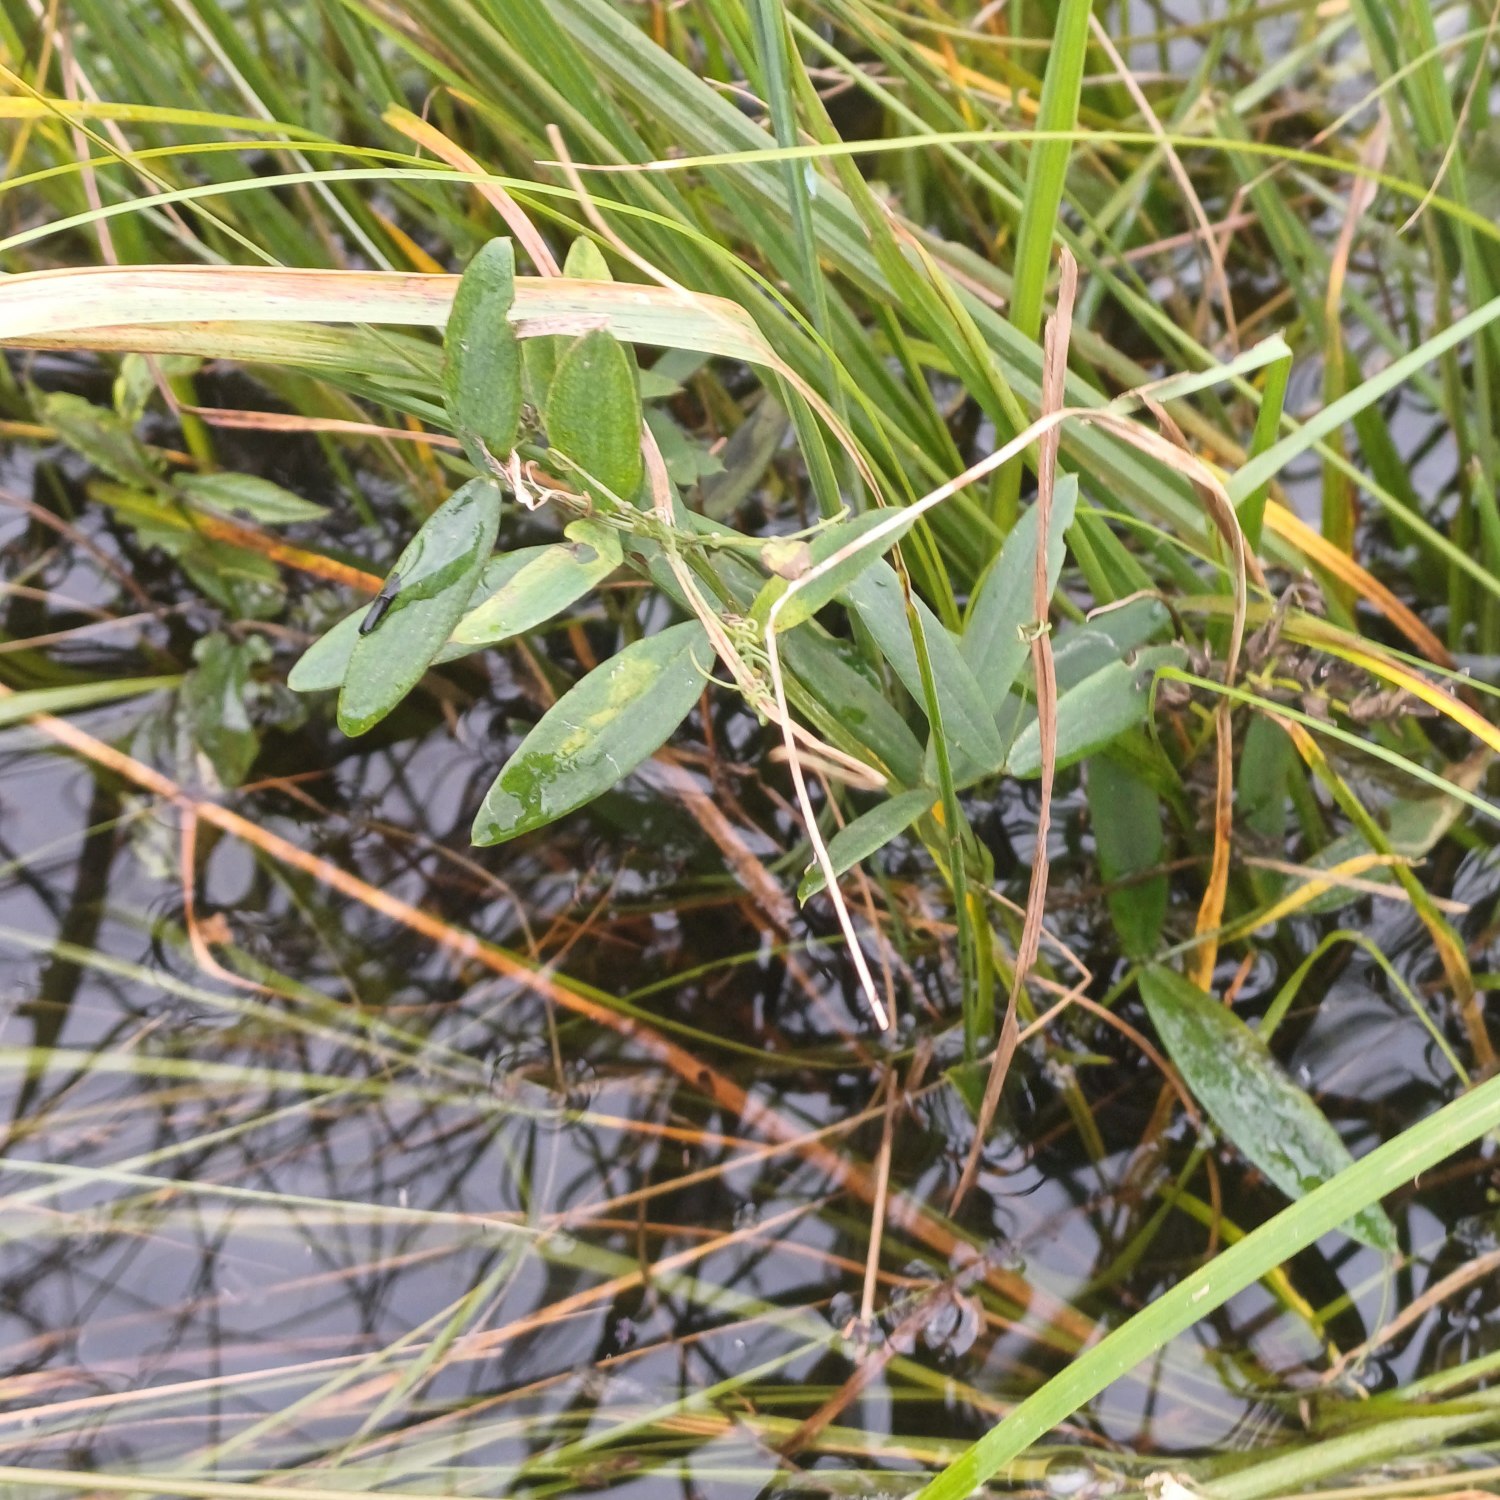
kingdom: Plantae
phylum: Tracheophyta
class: Magnoliopsida
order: Fabales
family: Fabaceae
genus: Lathyrus
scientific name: Lathyrus palustris
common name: Kær-fladbælg
